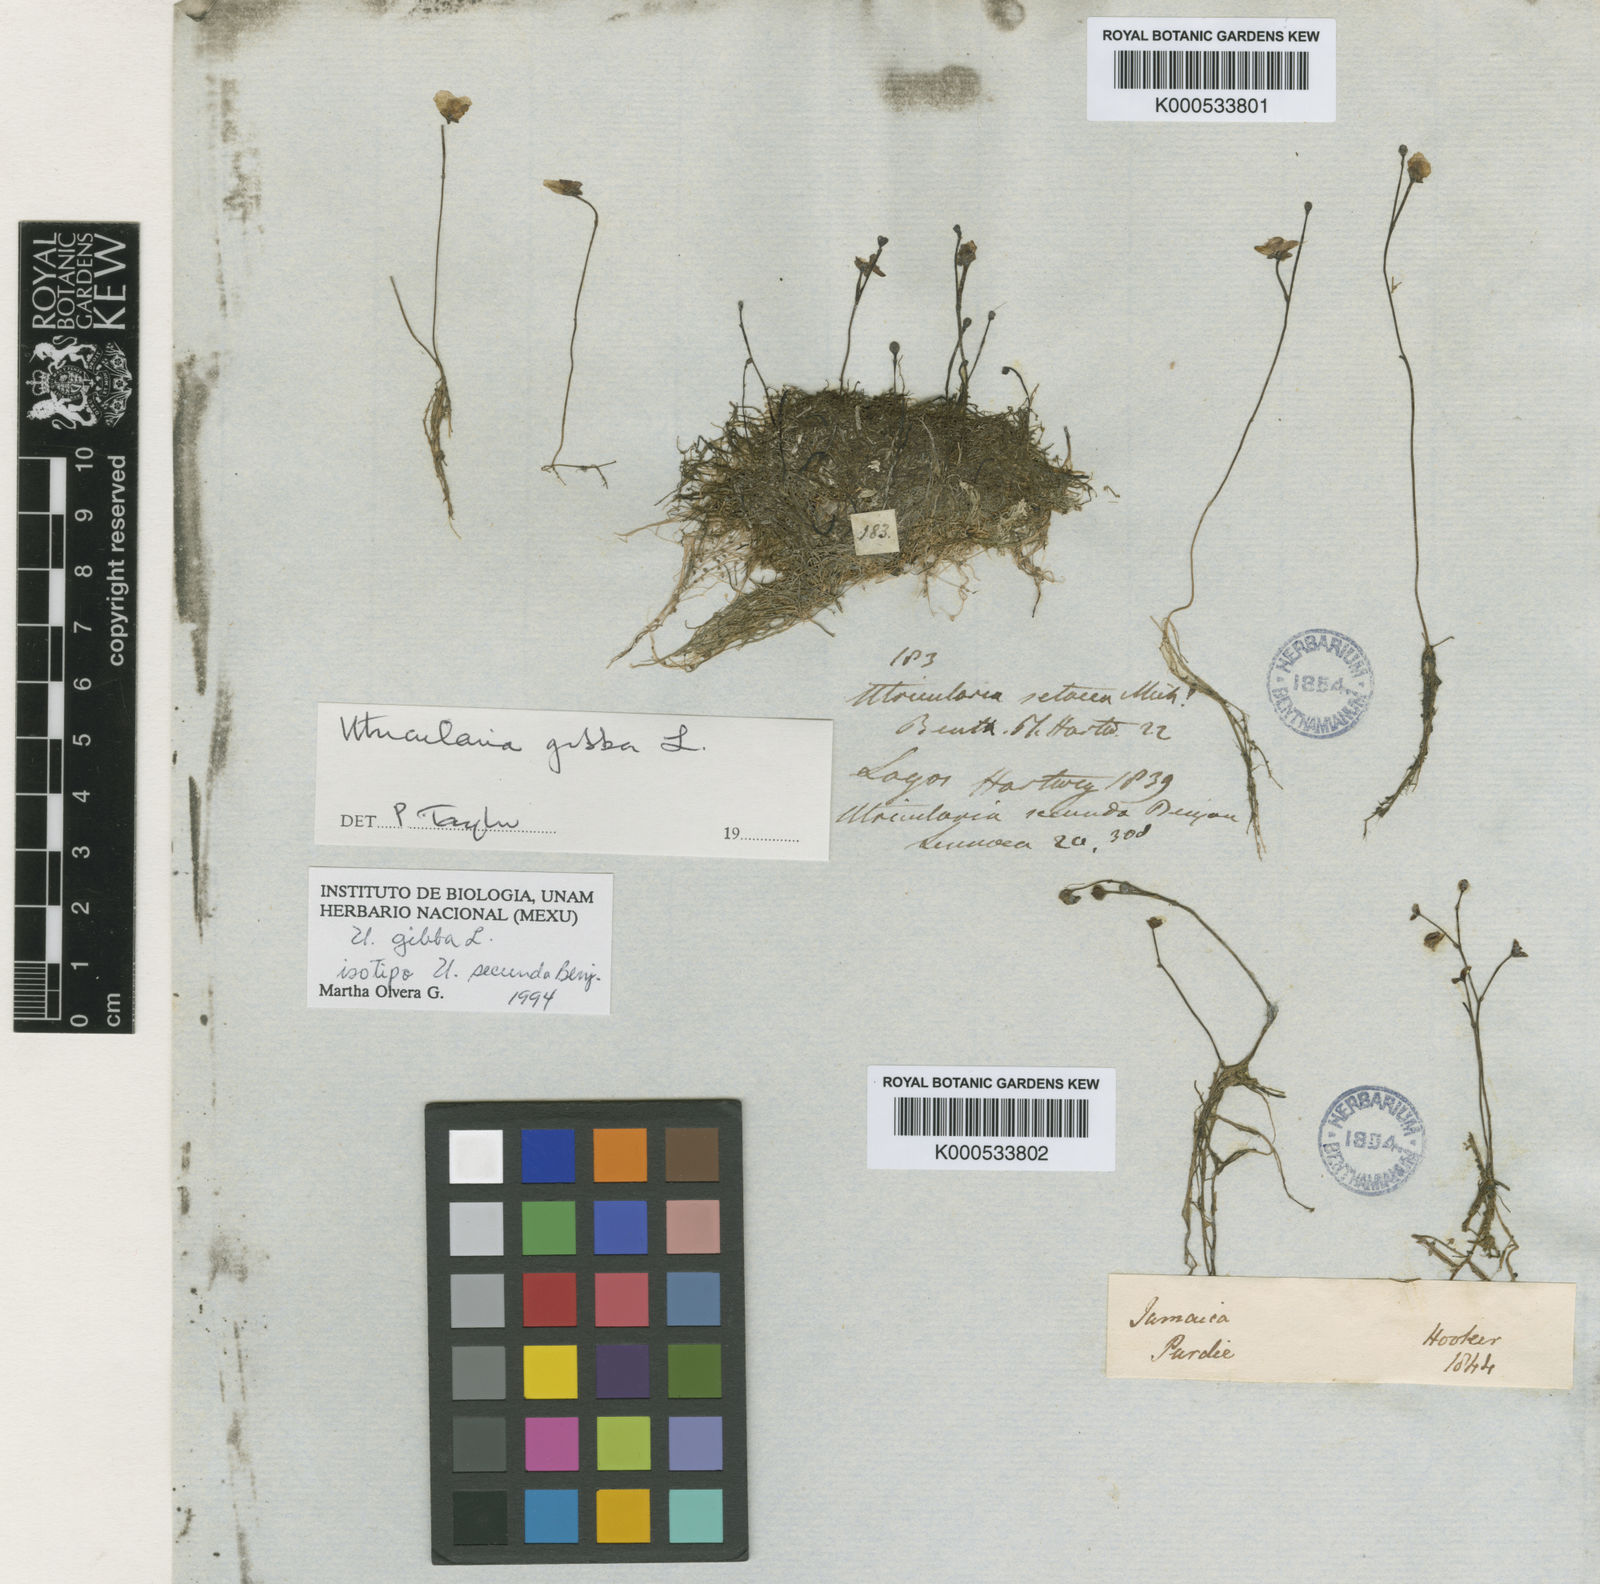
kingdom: Plantae
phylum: Tracheophyta
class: Magnoliopsida
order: Lamiales
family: Lentibulariaceae
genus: Utricularia
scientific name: Utricularia gibba
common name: Humped bladderwort
